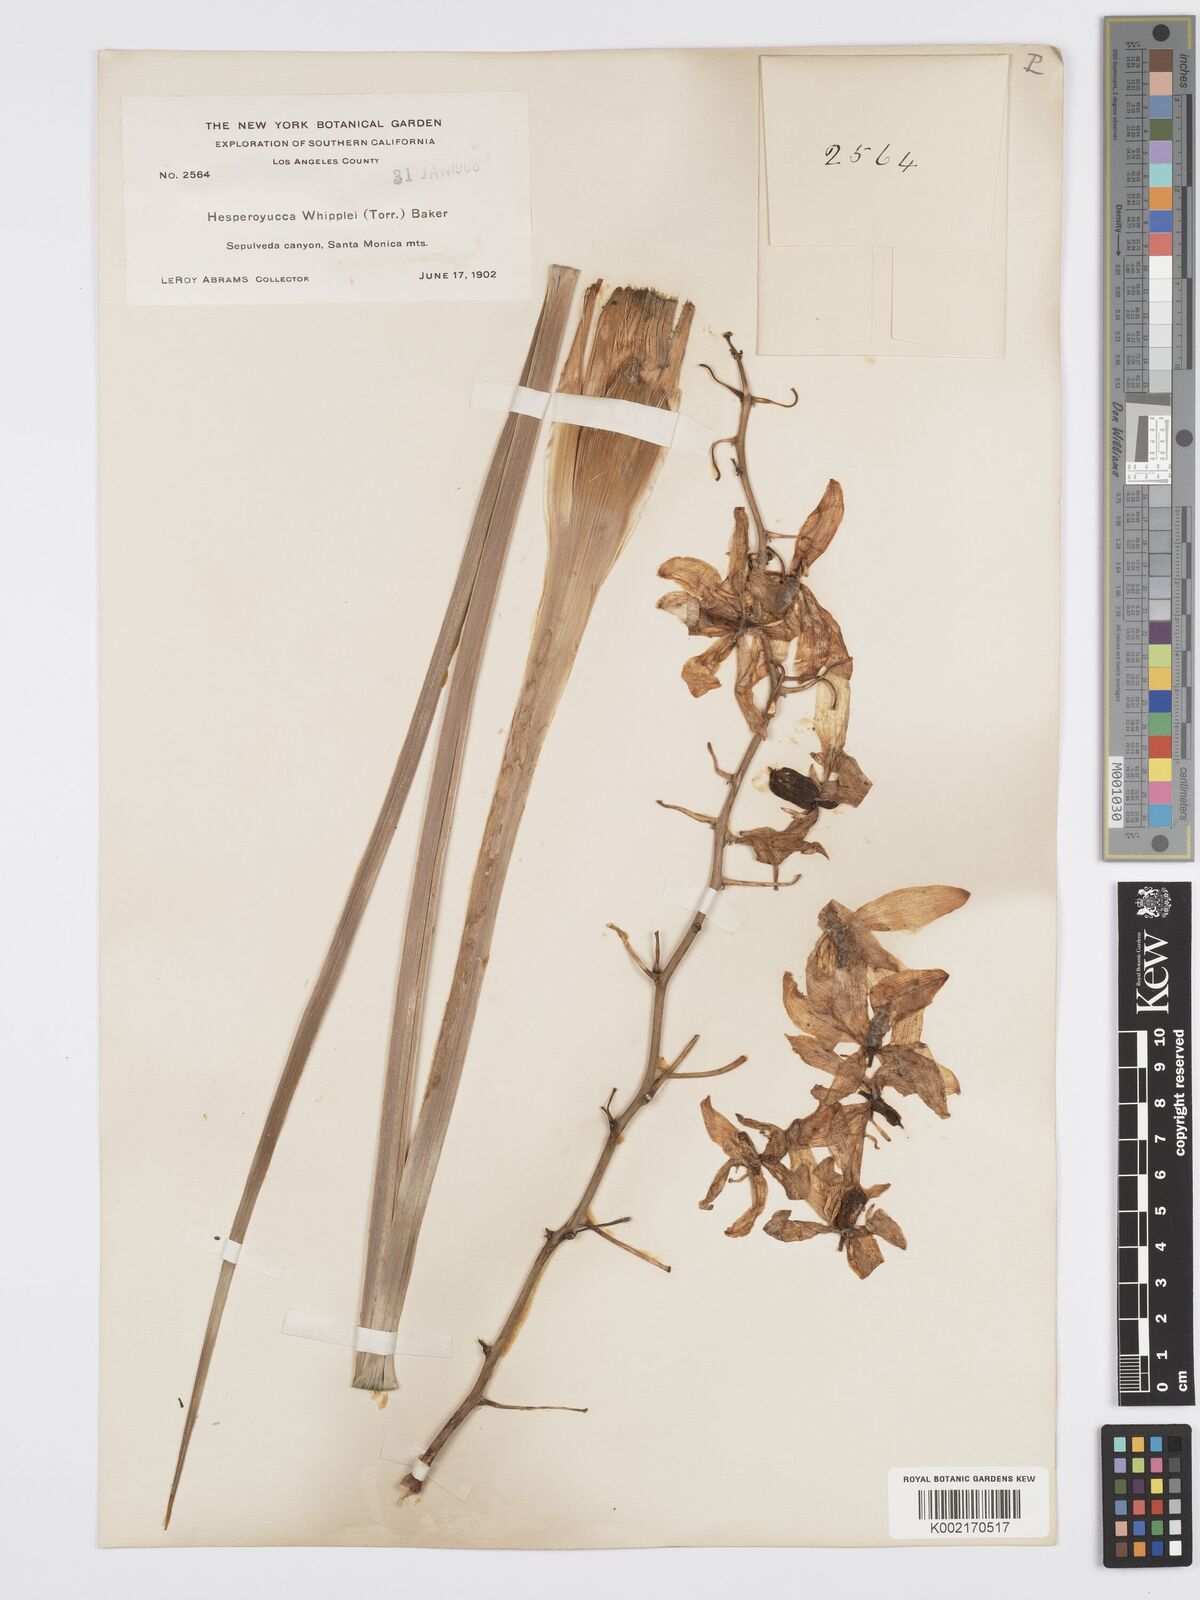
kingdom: Plantae
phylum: Tracheophyta
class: Liliopsida
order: Asparagales
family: Asparagaceae
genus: Hesperoyucca
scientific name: Hesperoyucca whipplei
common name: Our lord's-candle
